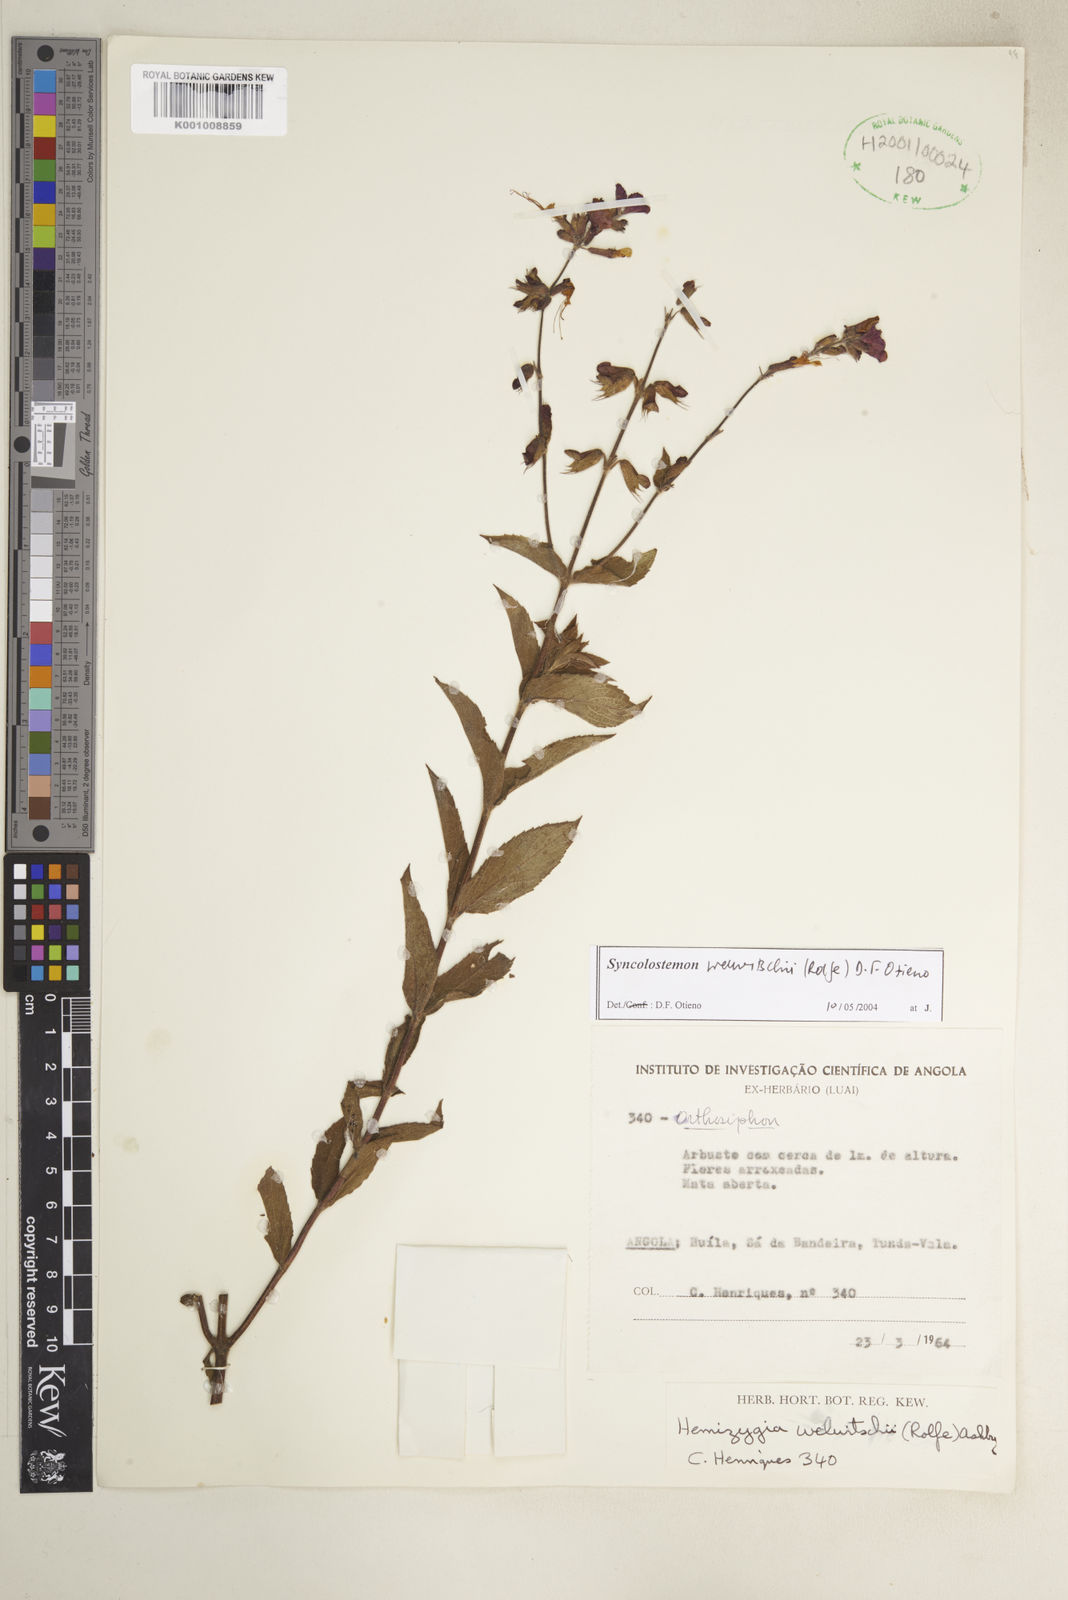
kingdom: Plantae
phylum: Tracheophyta
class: Magnoliopsida
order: Lamiales
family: Lamiaceae
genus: Syncolostemon
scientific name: Syncolostemon welwitschii
